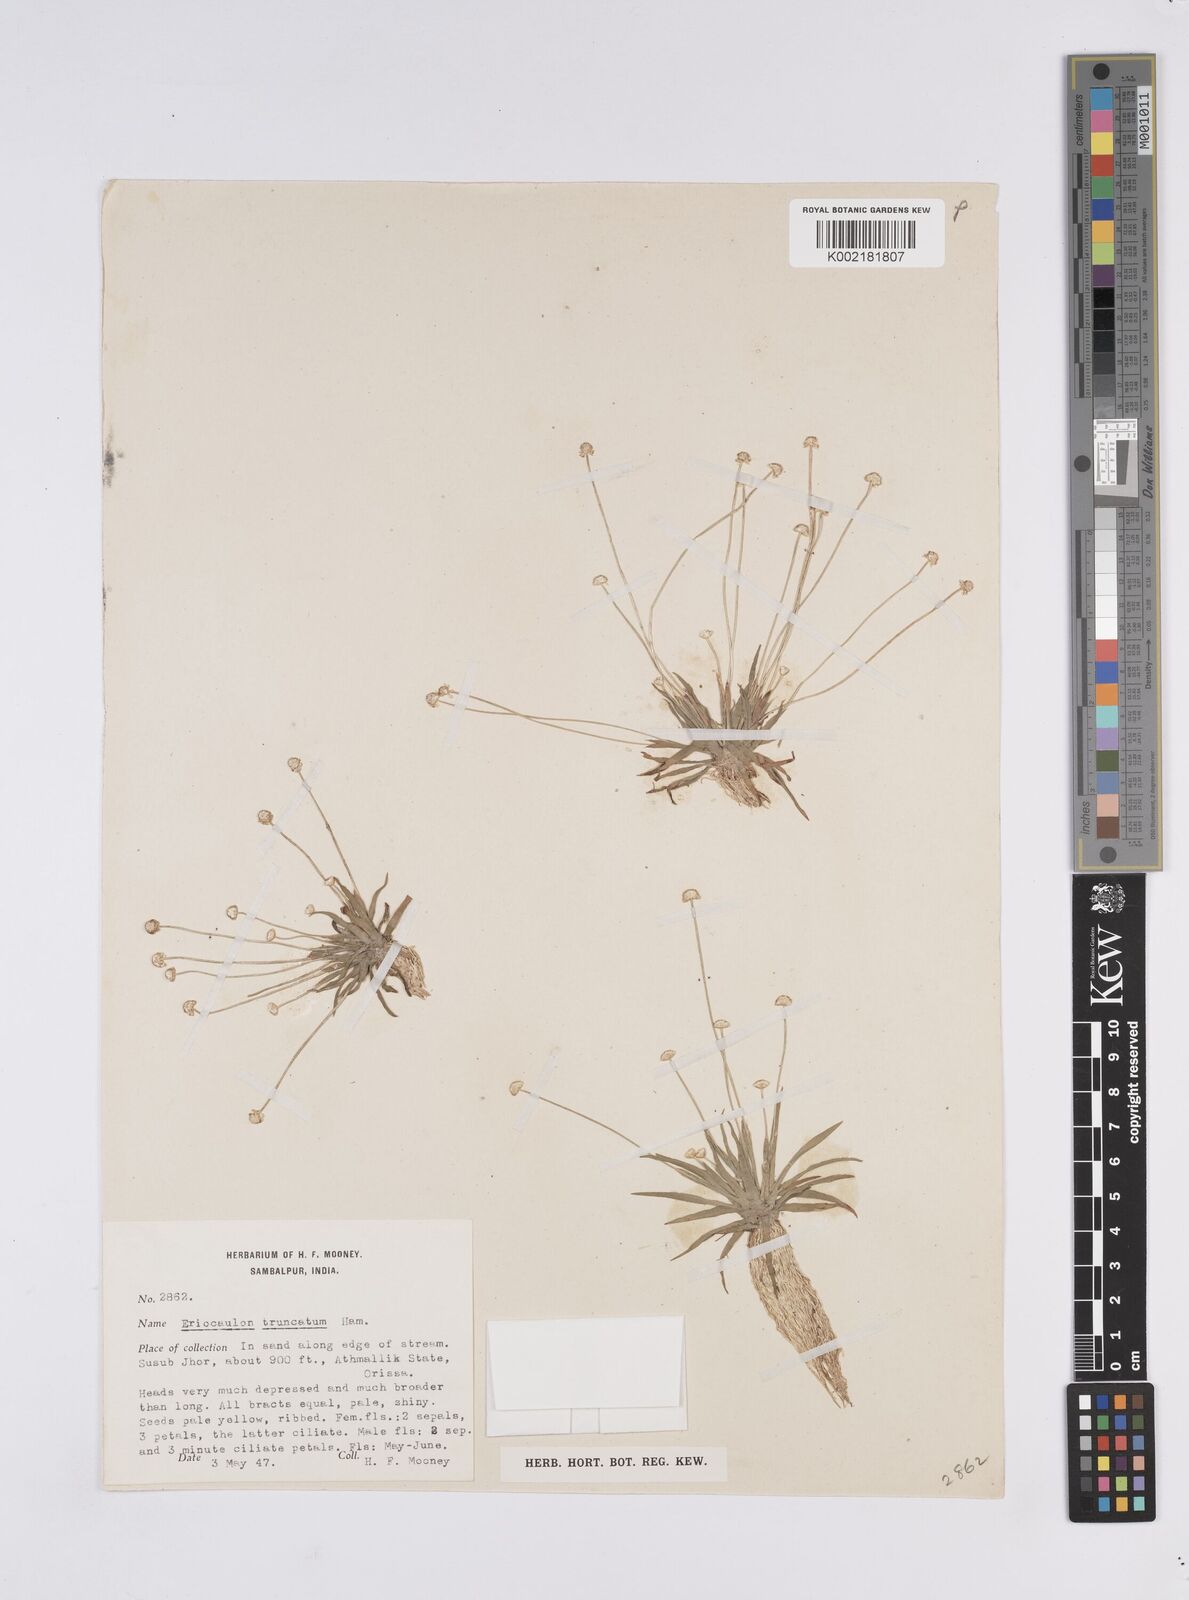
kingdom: Plantae
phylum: Tracheophyta
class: Liliopsida
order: Poales
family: Eriocaulaceae
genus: Eriocaulon
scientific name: Eriocaulon truncatum
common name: Short pipe-wort
